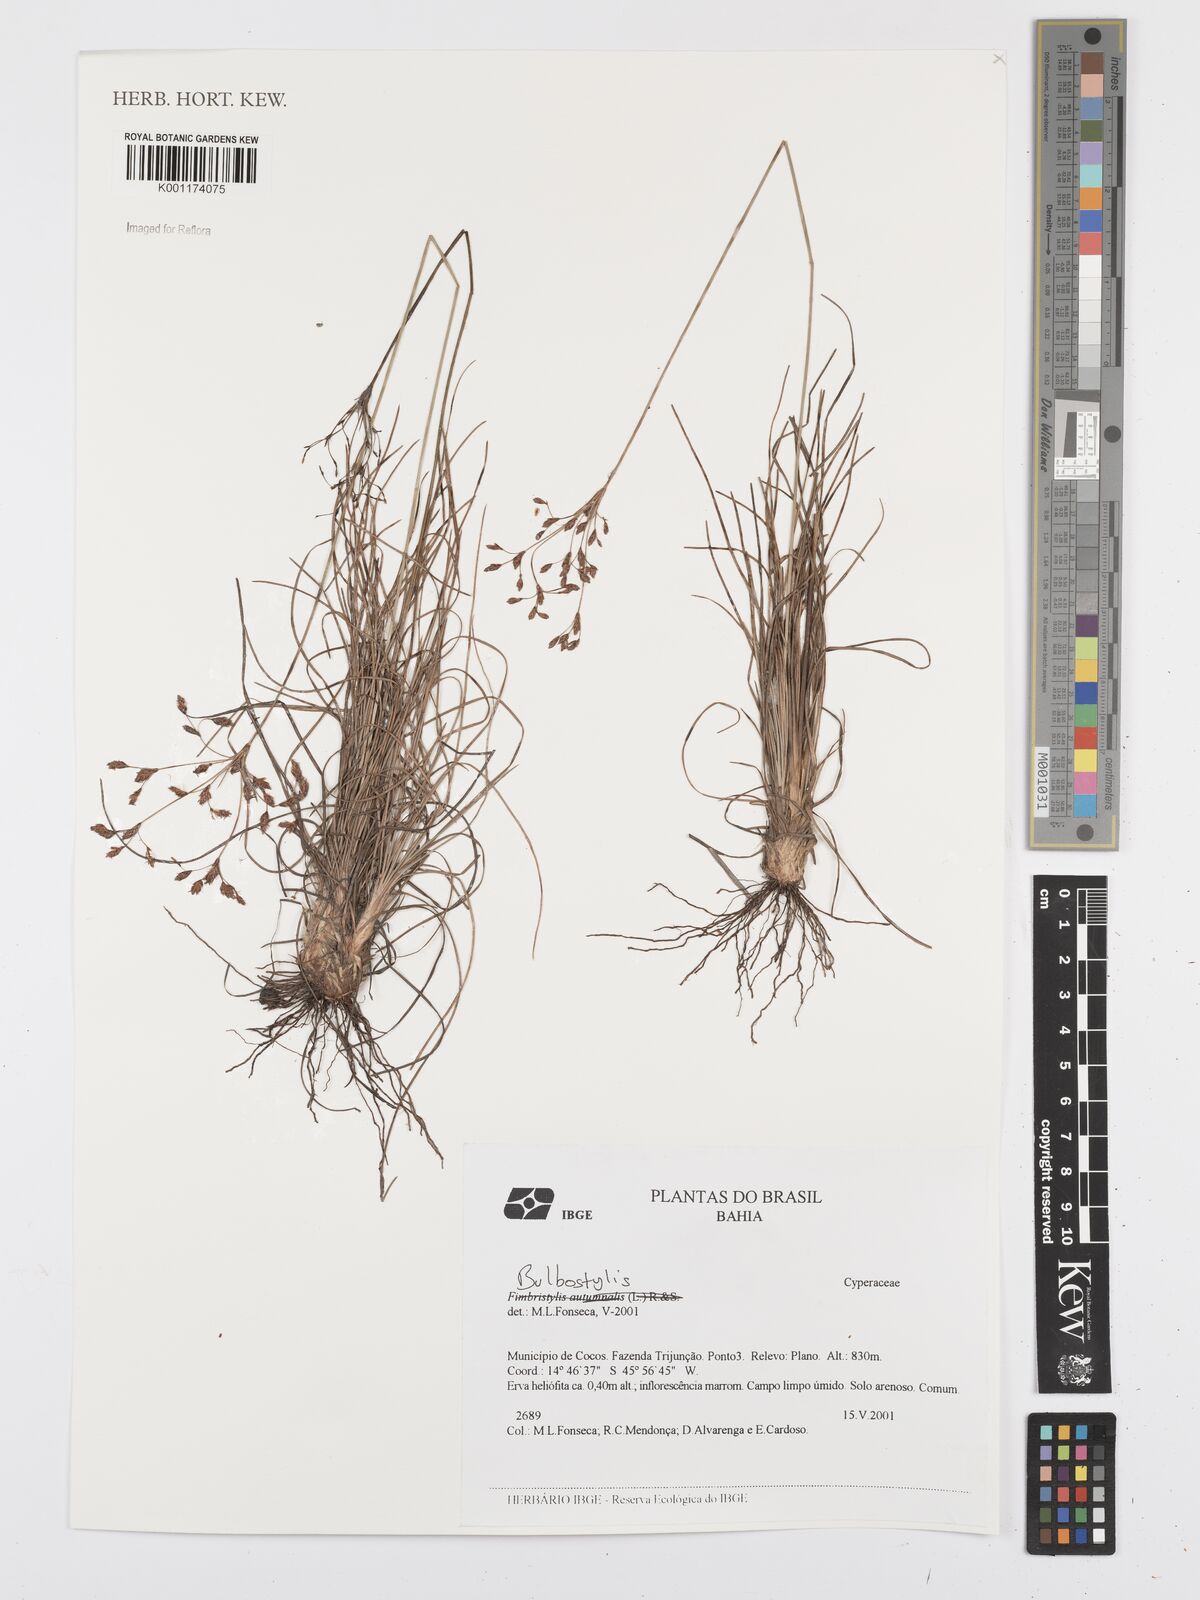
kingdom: Plantae
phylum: Tracheophyta
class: Liliopsida
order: Poales
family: Cyperaceae
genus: Bulbostylis
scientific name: Bulbostylis
